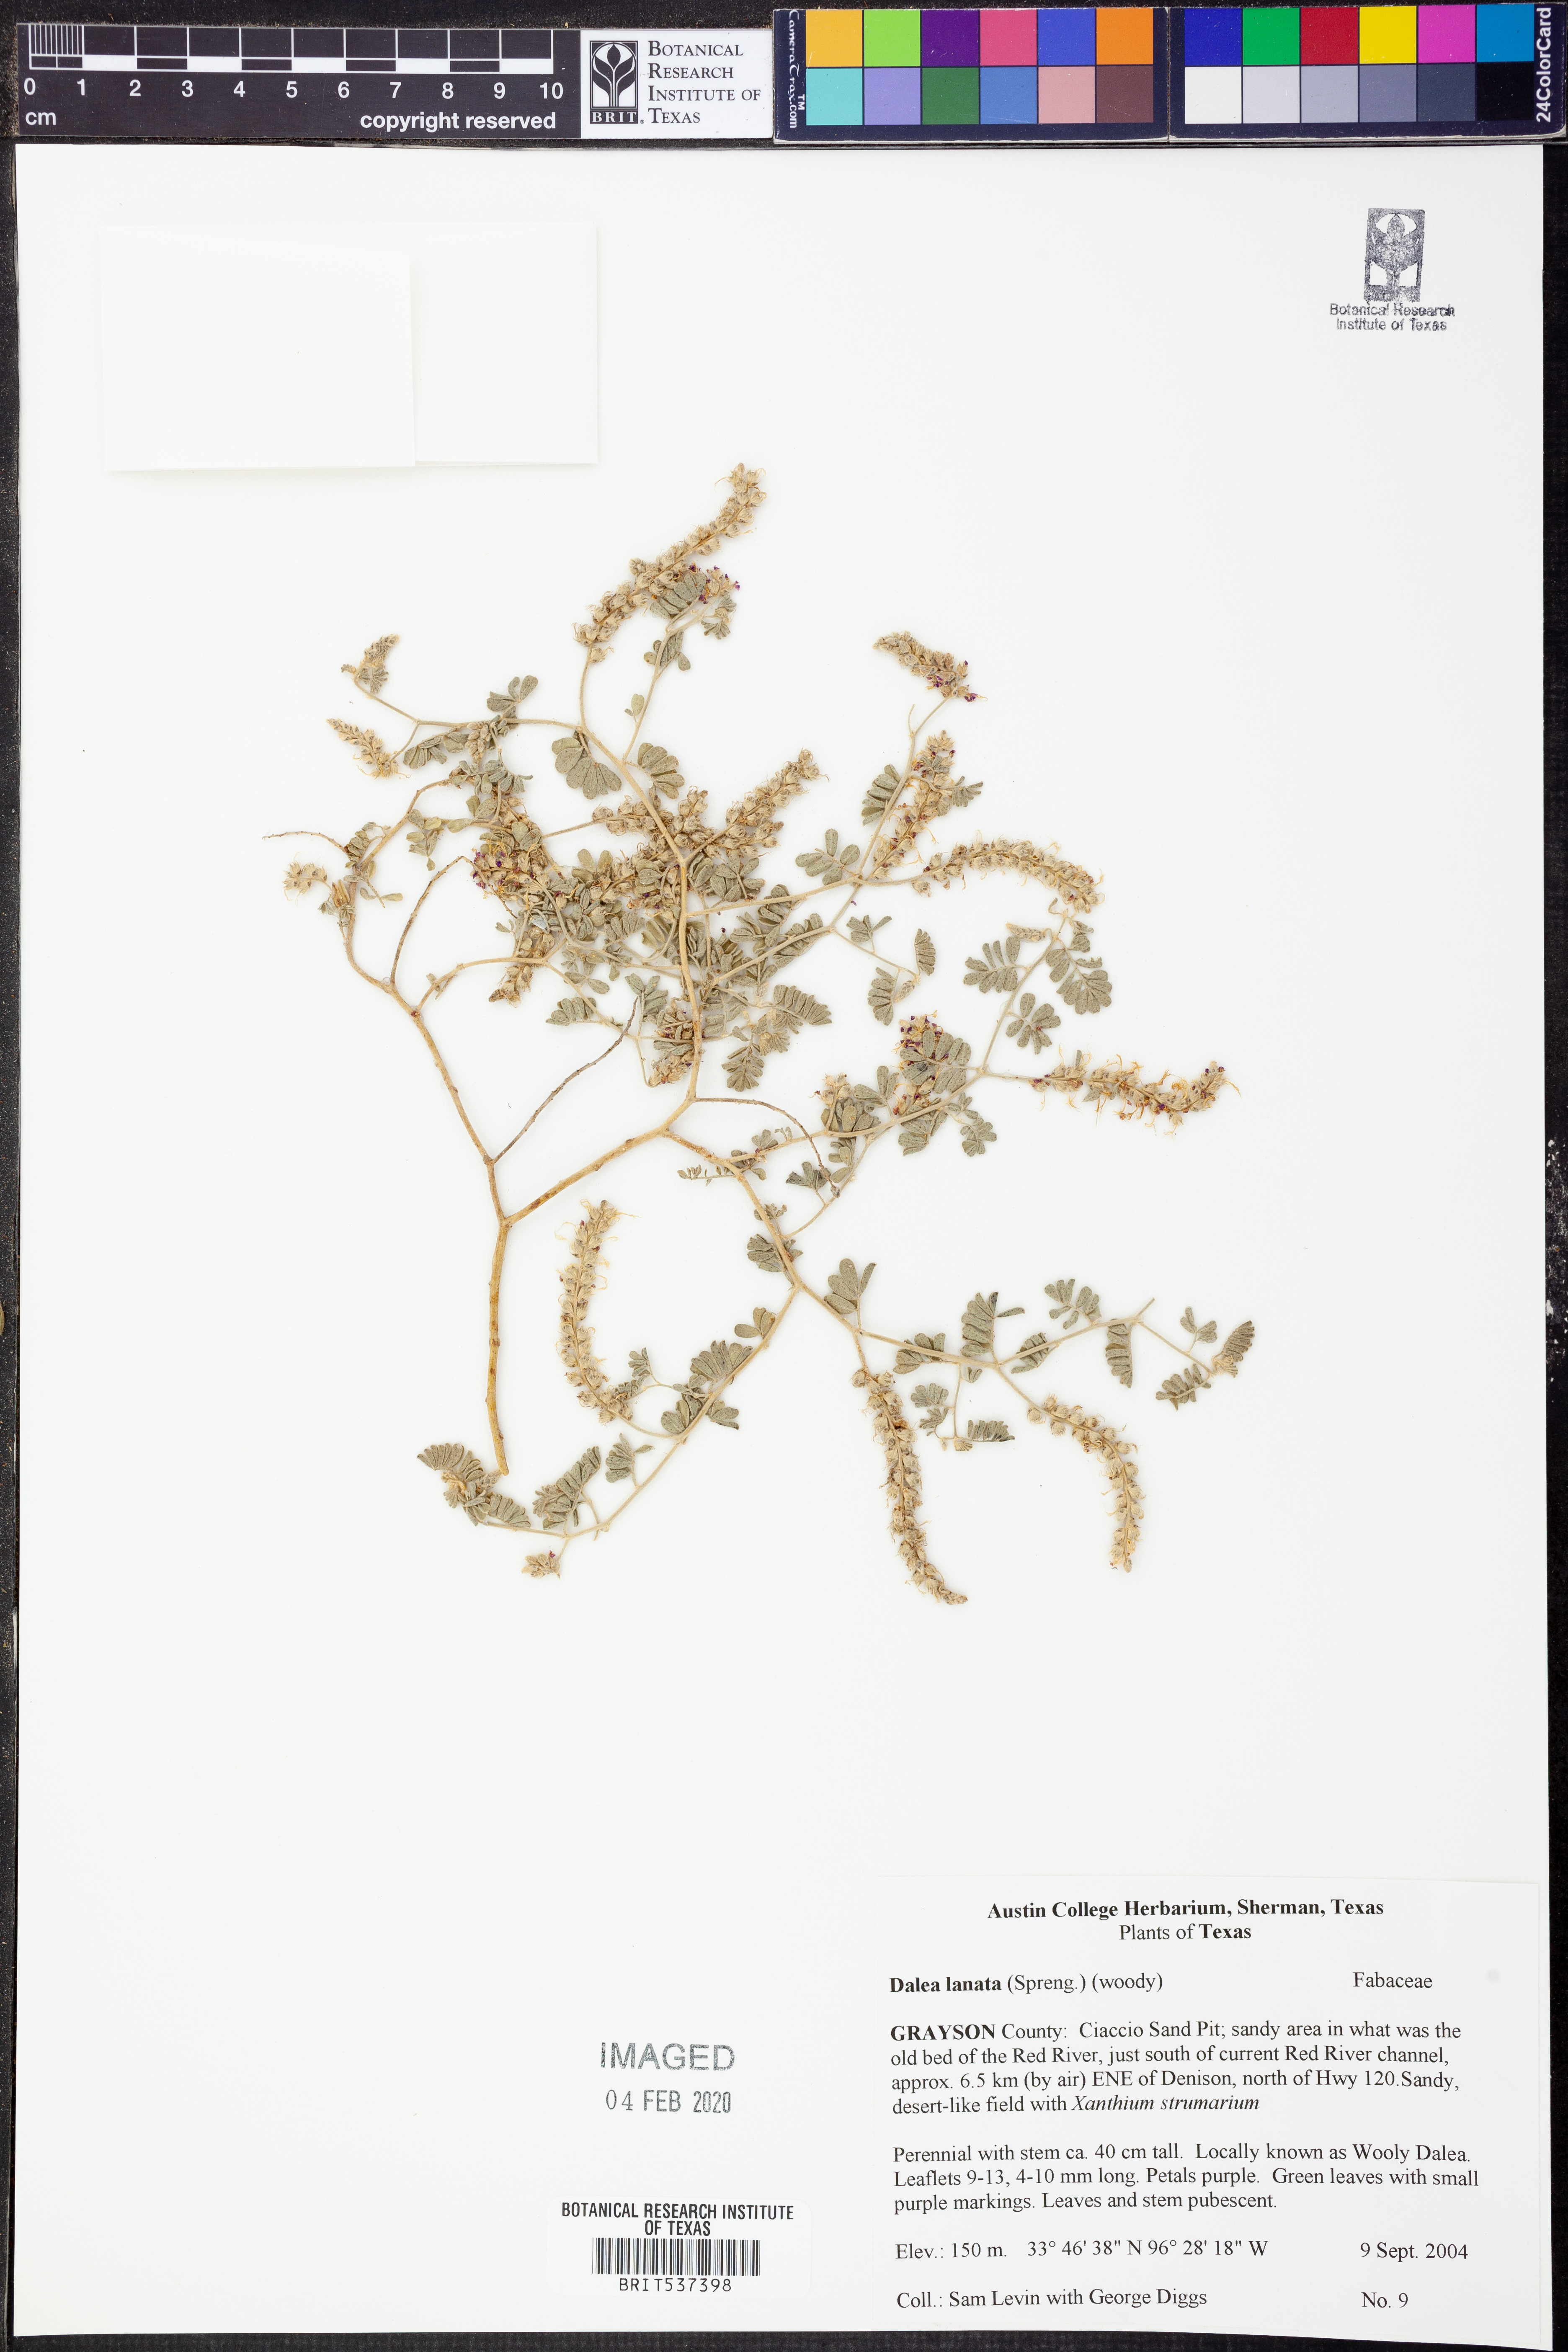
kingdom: Plantae
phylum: Tracheophyta
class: Magnoliopsida
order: Fabales
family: Fabaceae
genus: Dalea
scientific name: Dalea lanata
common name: Woolly dalea
